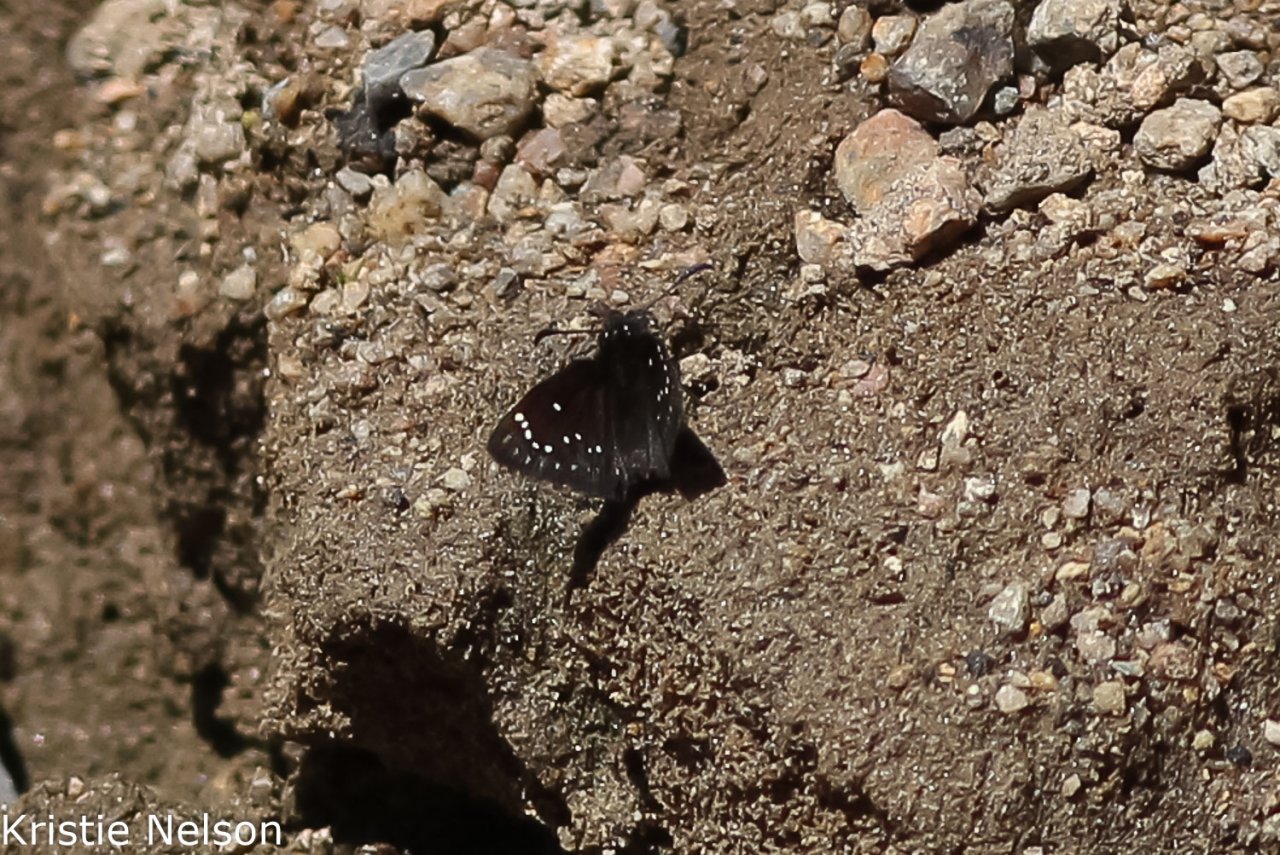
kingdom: Animalia
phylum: Arthropoda
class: Insecta
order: Lepidoptera
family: Hesperiidae
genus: Pholisora
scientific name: Pholisora catullus
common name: Common Sootywing
